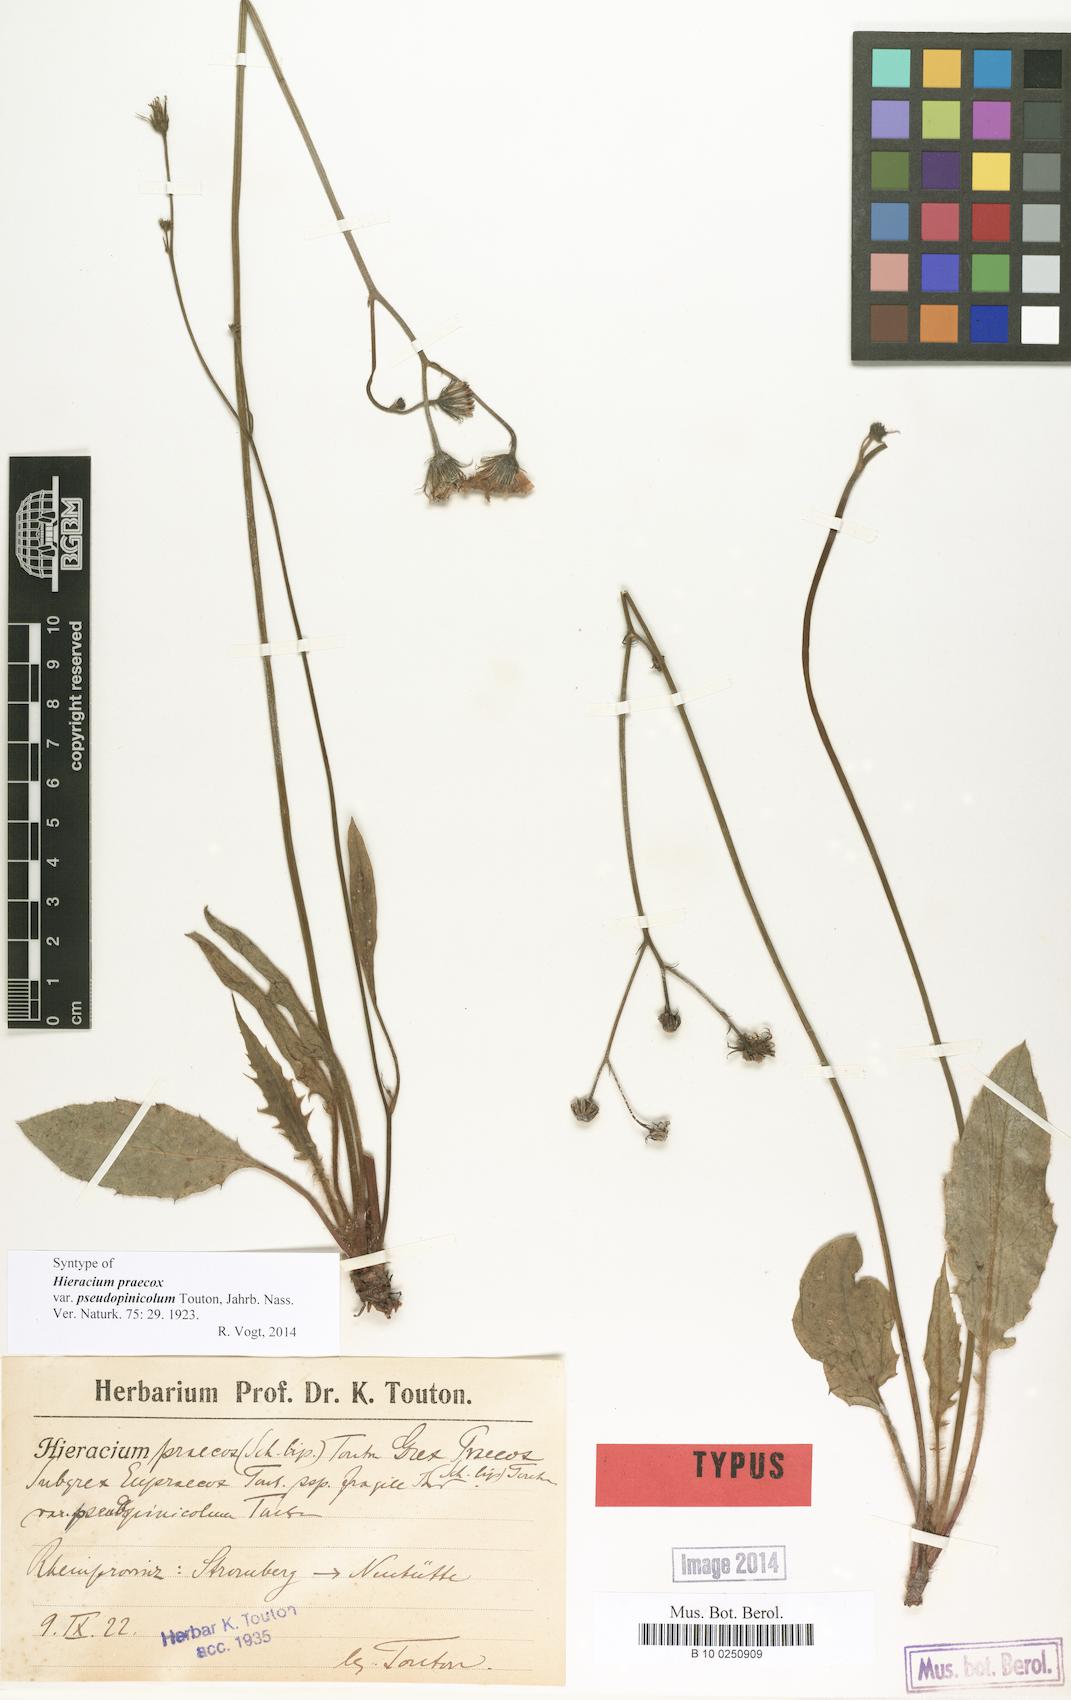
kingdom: Plantae
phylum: Tracheophyta
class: Magnoliopsida
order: Asterales
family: Asteraceae
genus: Hieracium
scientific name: Hieracium praecox
